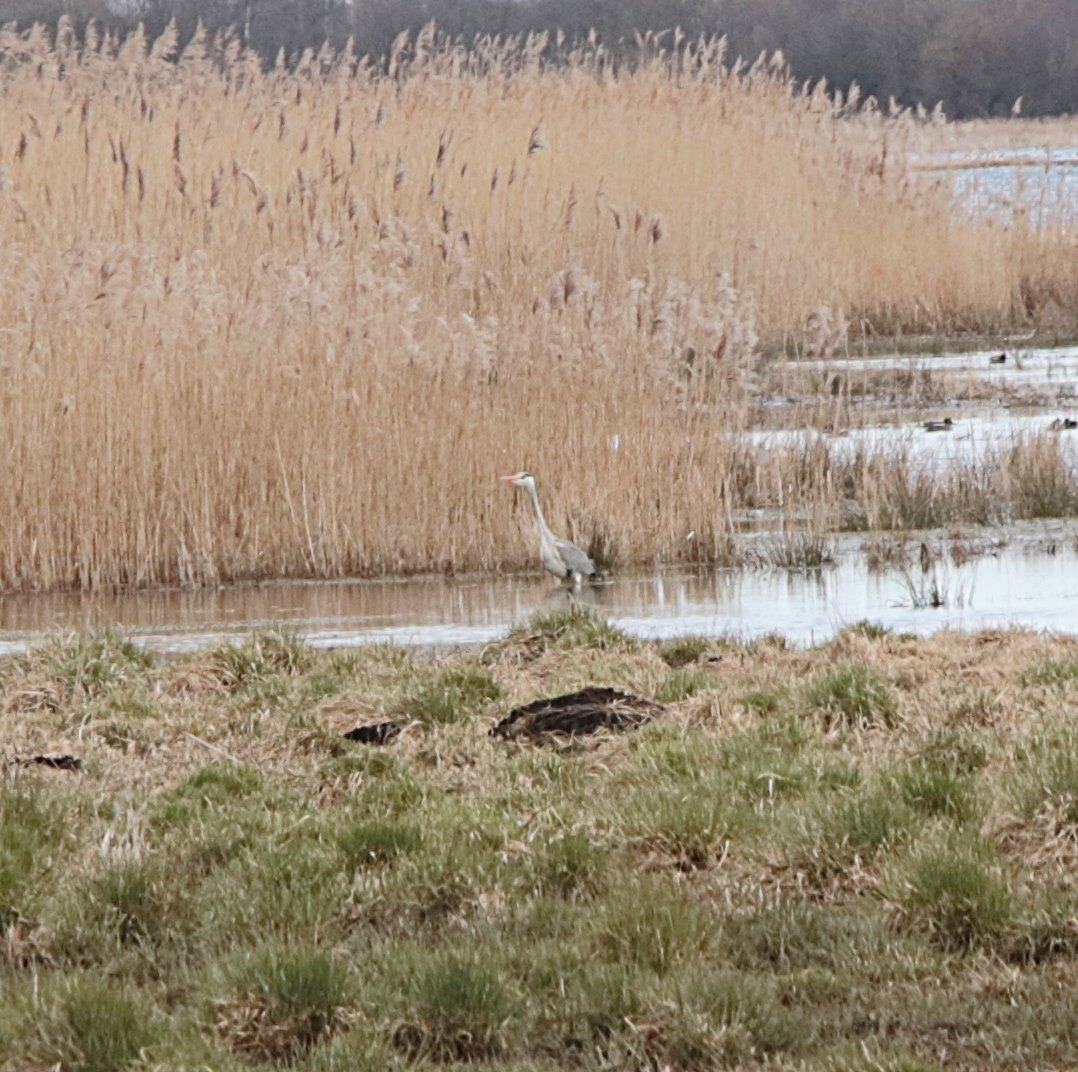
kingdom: Animalia
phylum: Chordata
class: Aves
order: Pelecaniformes
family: Ardeidae
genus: Ardea
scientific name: Ardea cinerea
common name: Fiskehejre
